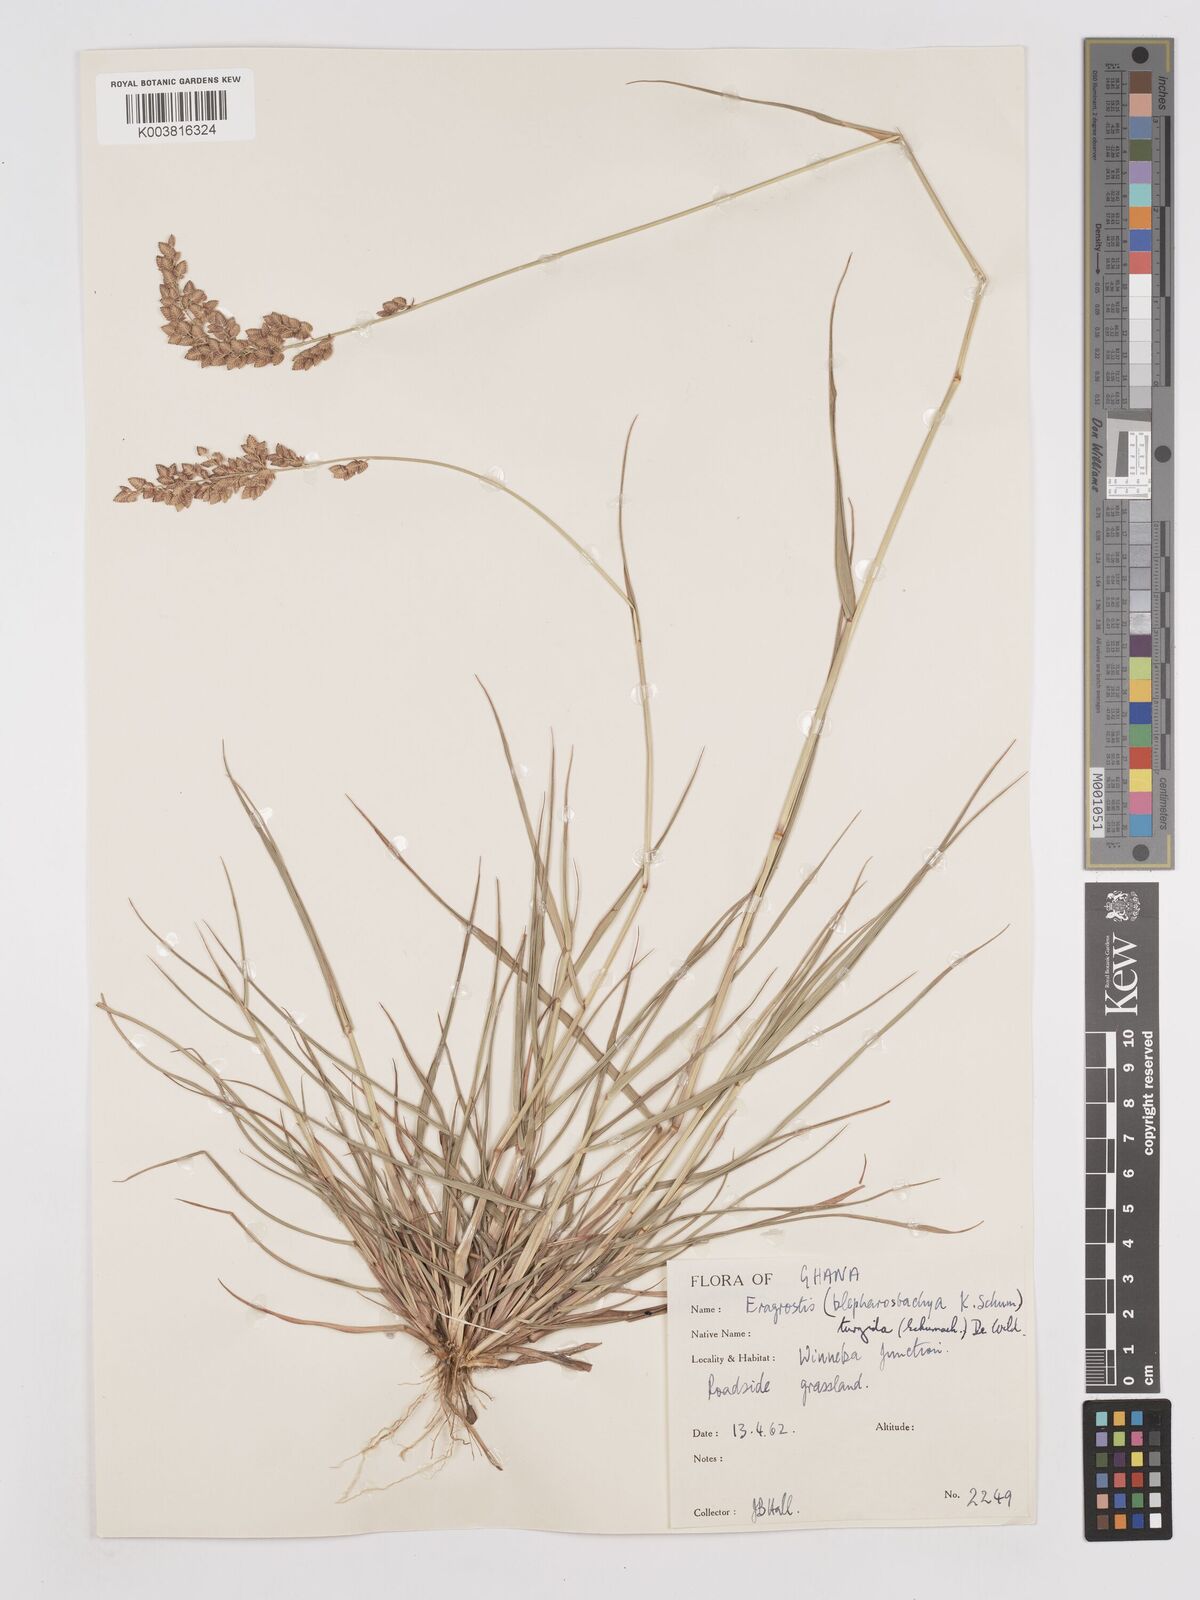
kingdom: Plantae
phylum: Tracheophyta
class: Liliopsida
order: Poales
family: Poaceae
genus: Eragrostis
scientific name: Eragrostis turgida
